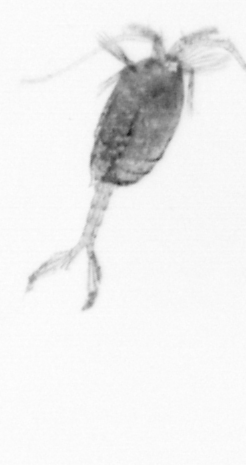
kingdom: Animalia
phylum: Arthropoda
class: Copepoda
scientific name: Copepoda
